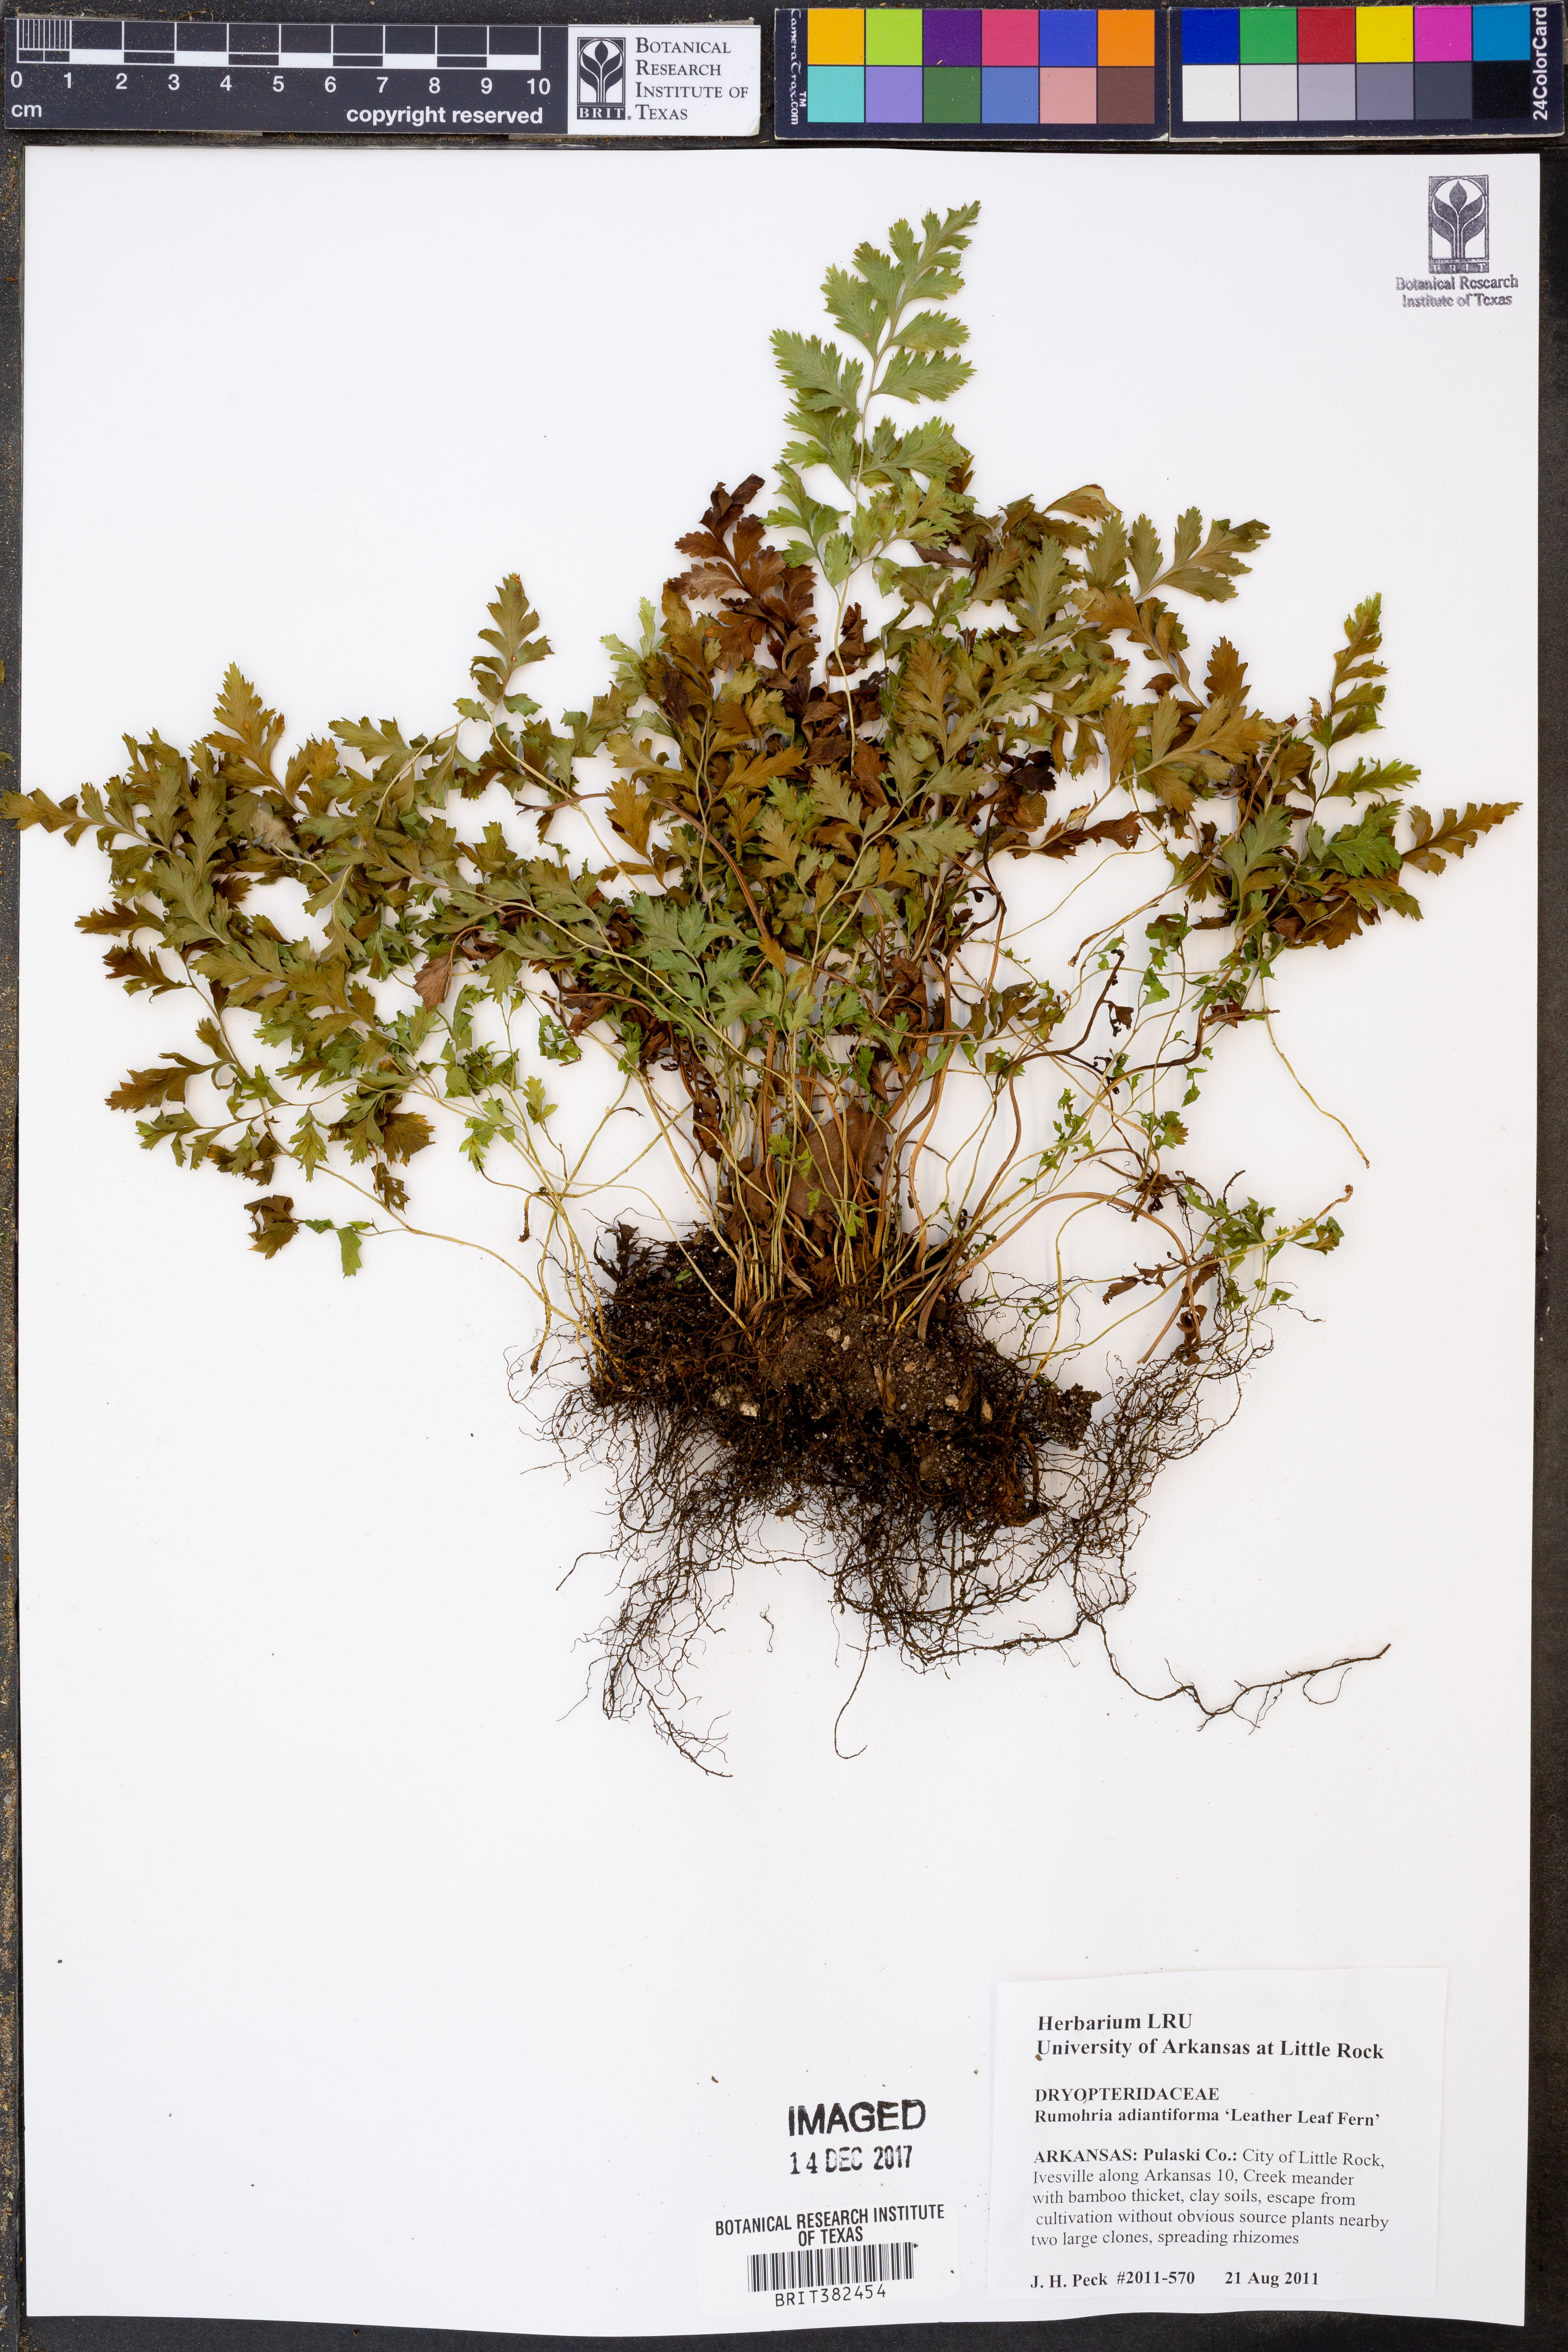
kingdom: Plantae
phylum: Tracheophyta
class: Polypodiopsida
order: Polypodiales
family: Dryopteridaceae
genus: Rumohra
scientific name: Rumohra adiantiformis
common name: Leather fern
